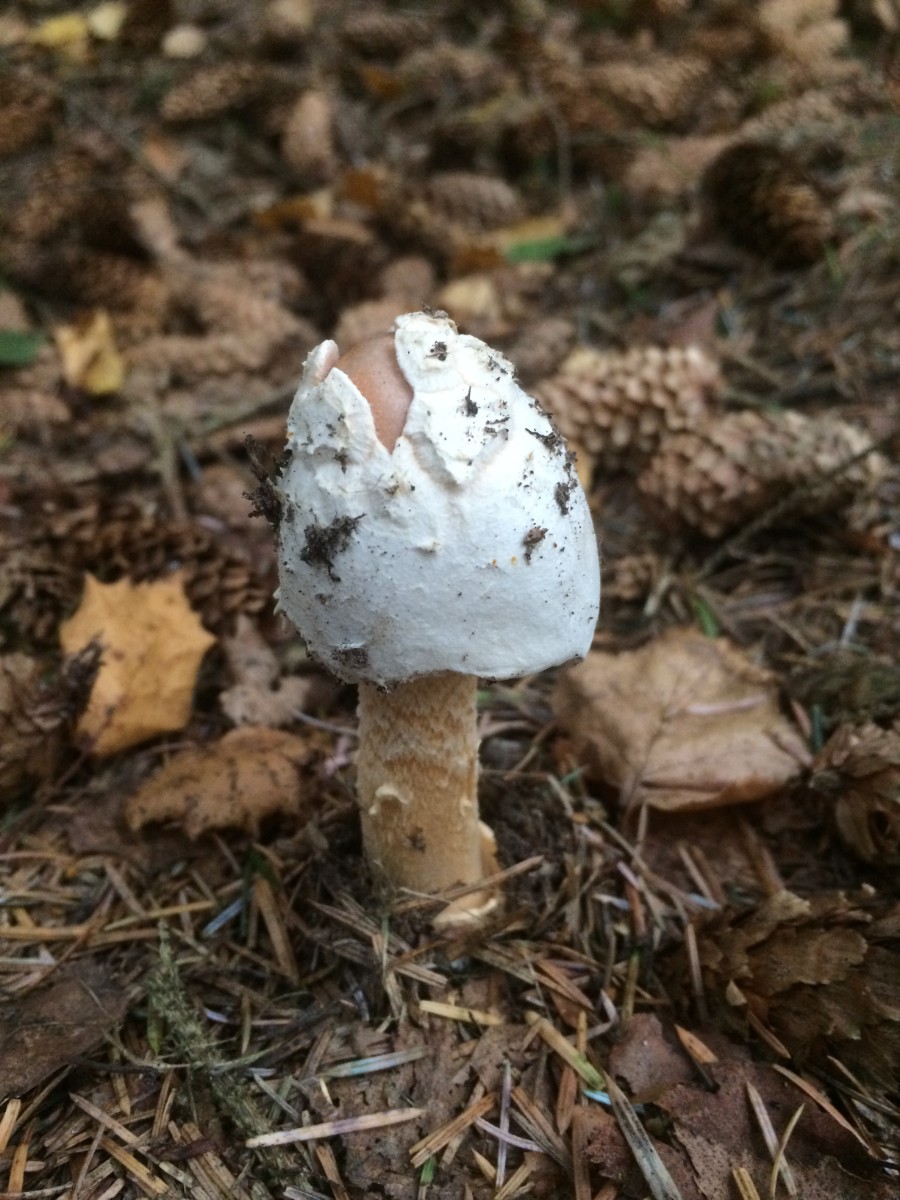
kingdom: Fungi
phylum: Basidiomycota
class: Agaricomycetes
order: Agaricales
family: Amanitaceae
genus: Amanita
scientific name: Amanita crocea
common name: gylden kam-fluesvamp
